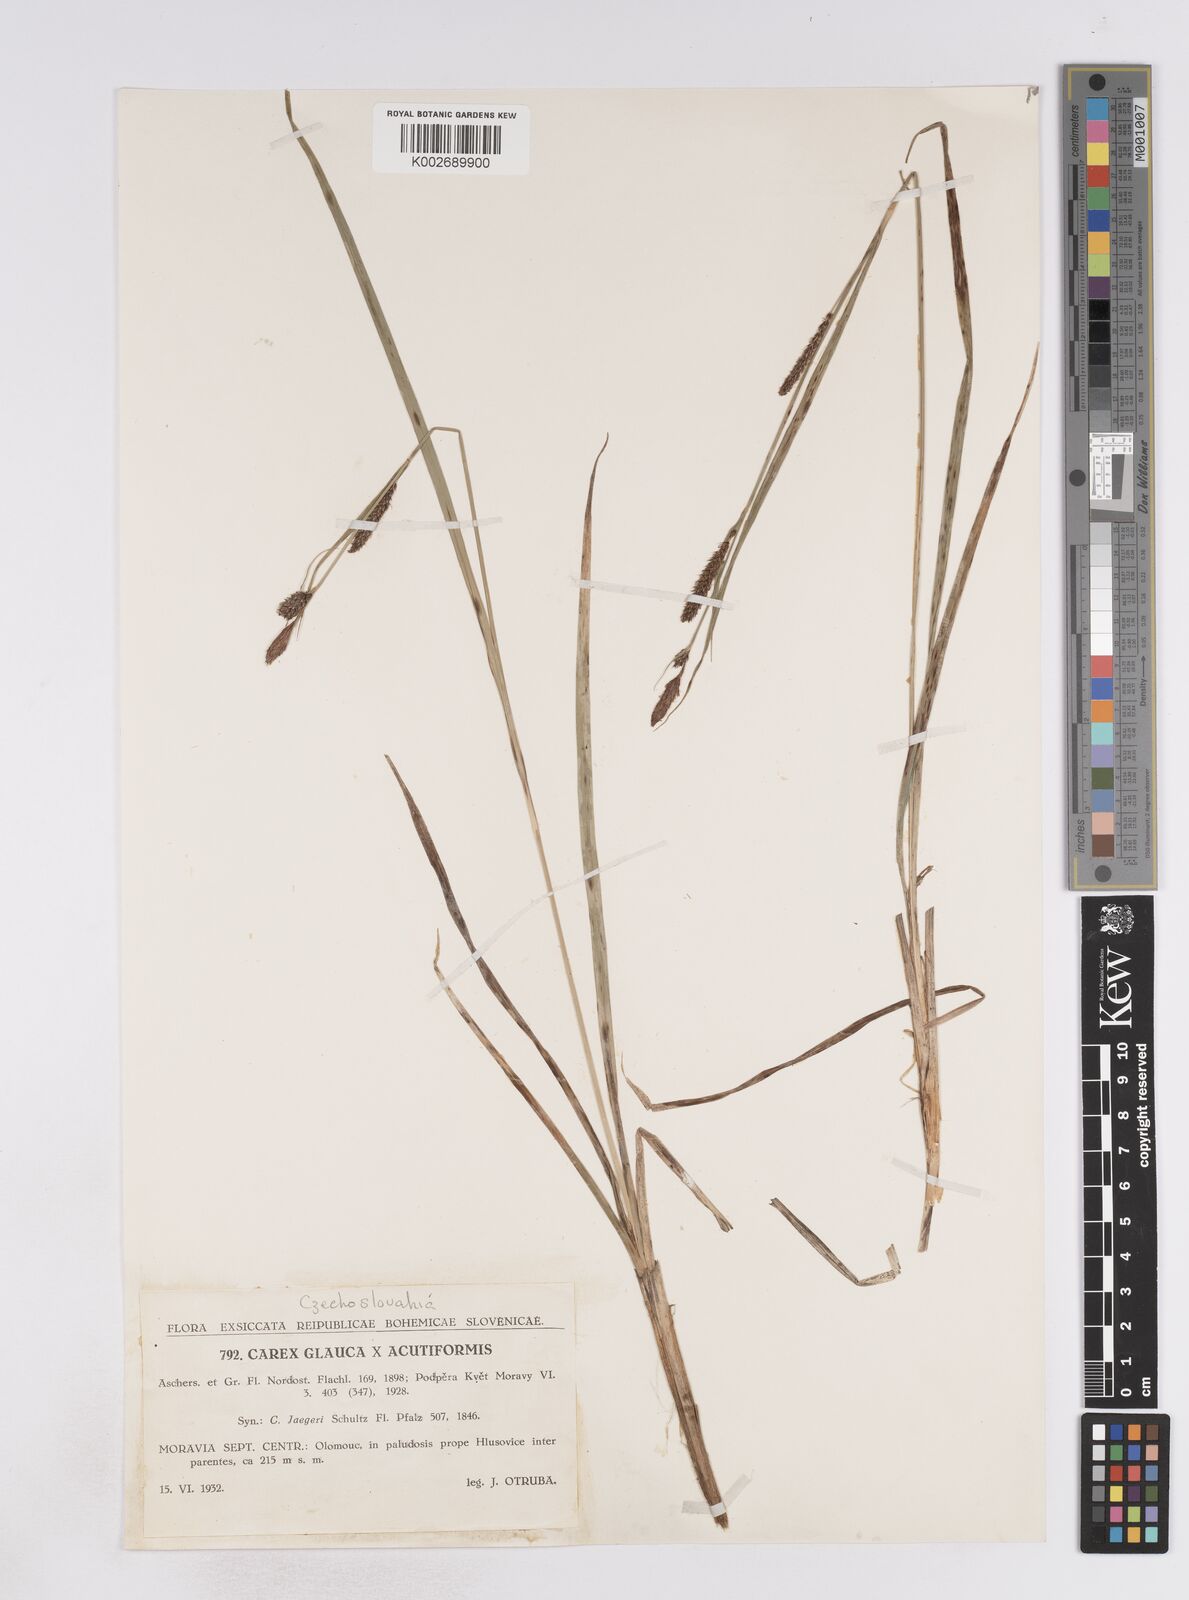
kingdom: Plantae
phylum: Tracheophyta
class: Liliopsida
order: Poales
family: Cyperaceae
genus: Carex
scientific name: Carex flacca
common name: Glaucous sedge
